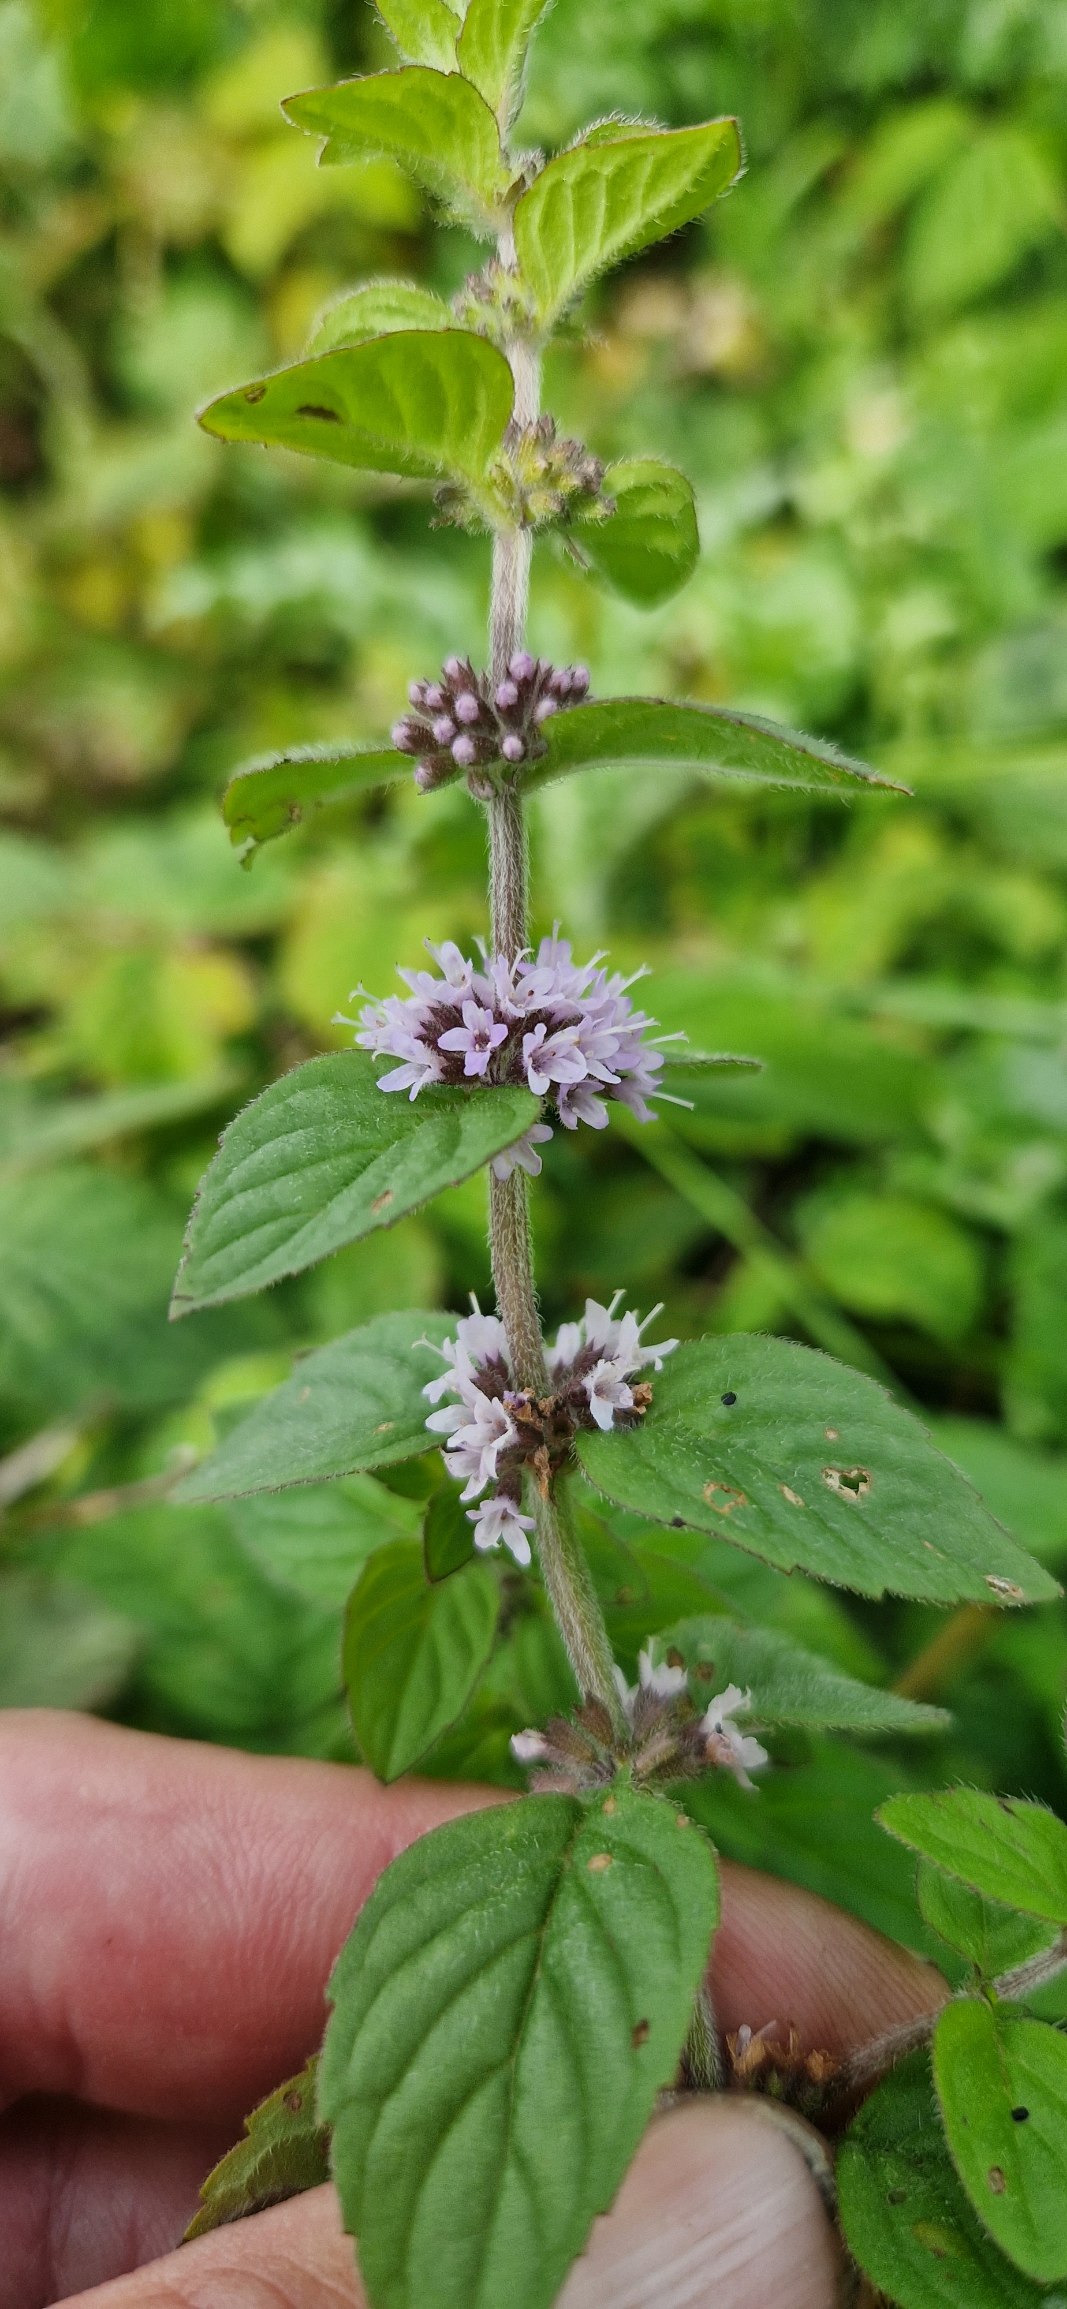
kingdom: Plantae
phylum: Tracheophyta
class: Magnoliopsida
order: Lamiales
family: Lamiaceae
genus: Mentha
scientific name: Mentha verticillata
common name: Krans-mynte
